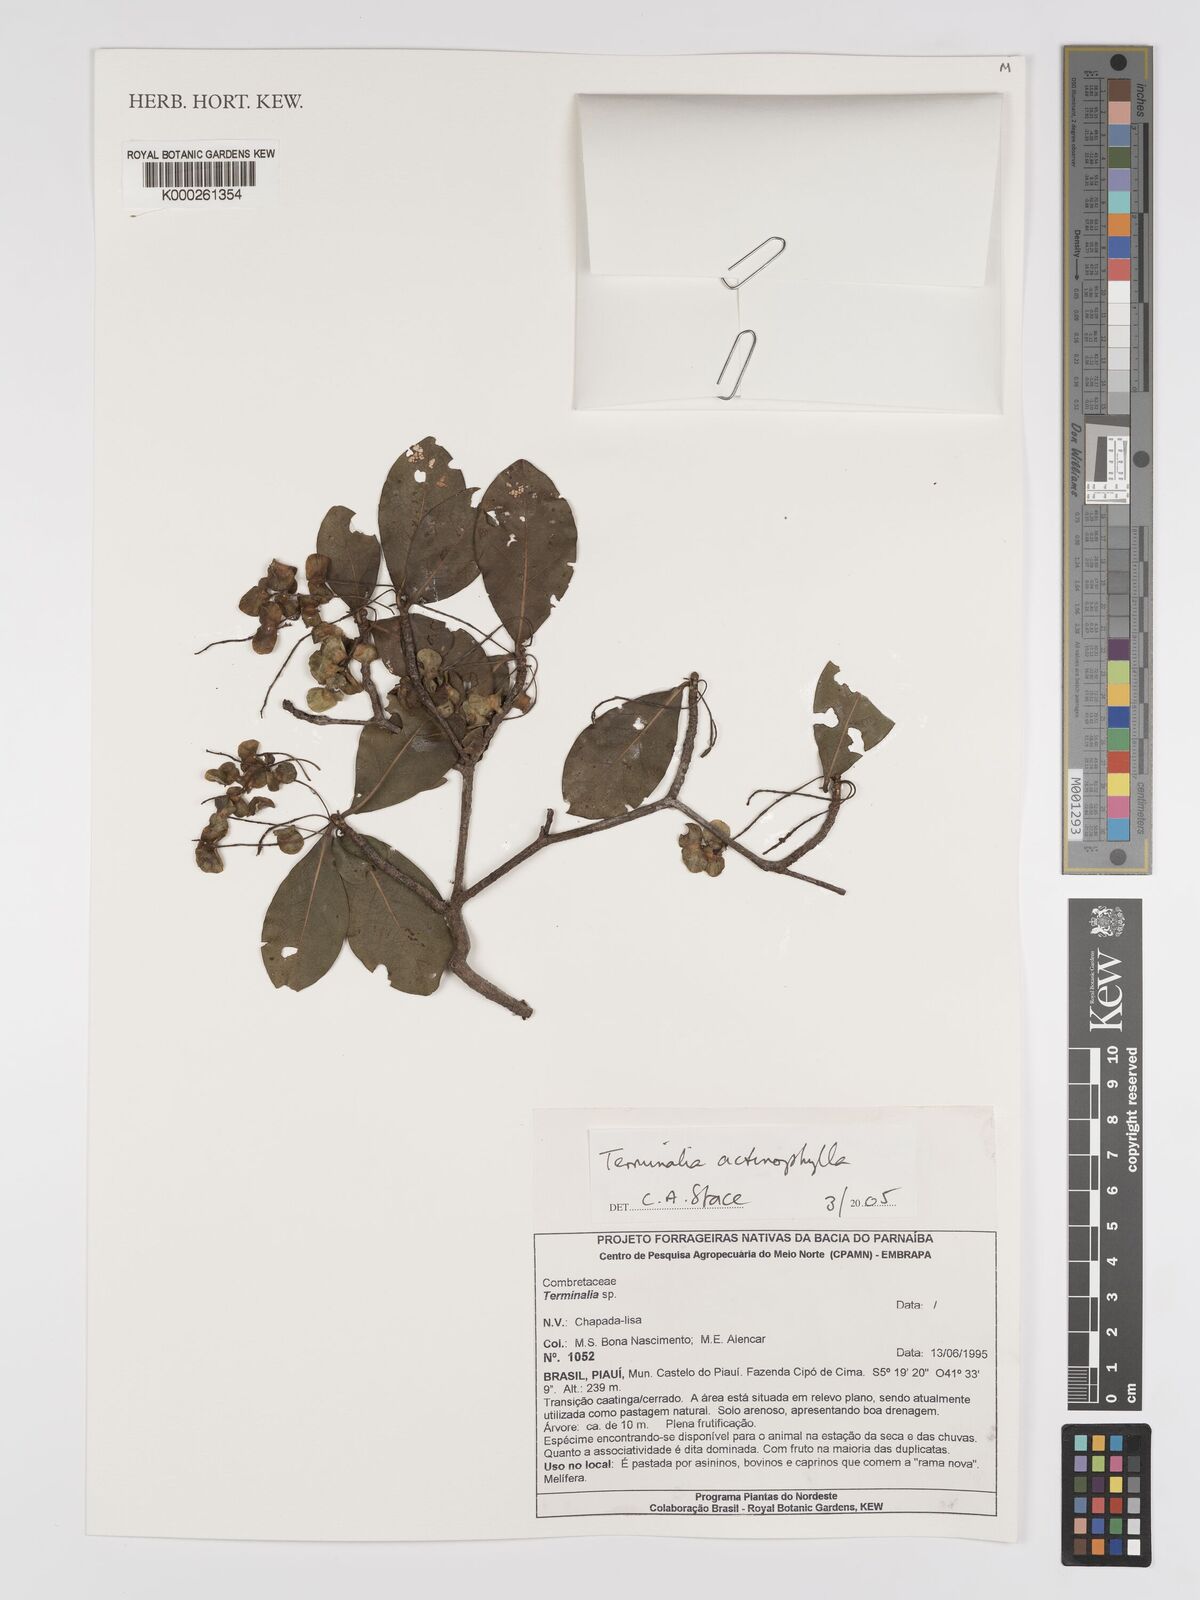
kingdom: Plantae
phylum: Tracheophyta
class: Magnoliopsida
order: Myrtales
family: Combretaceae
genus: Terminalia
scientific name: Terminalia actinophylla
